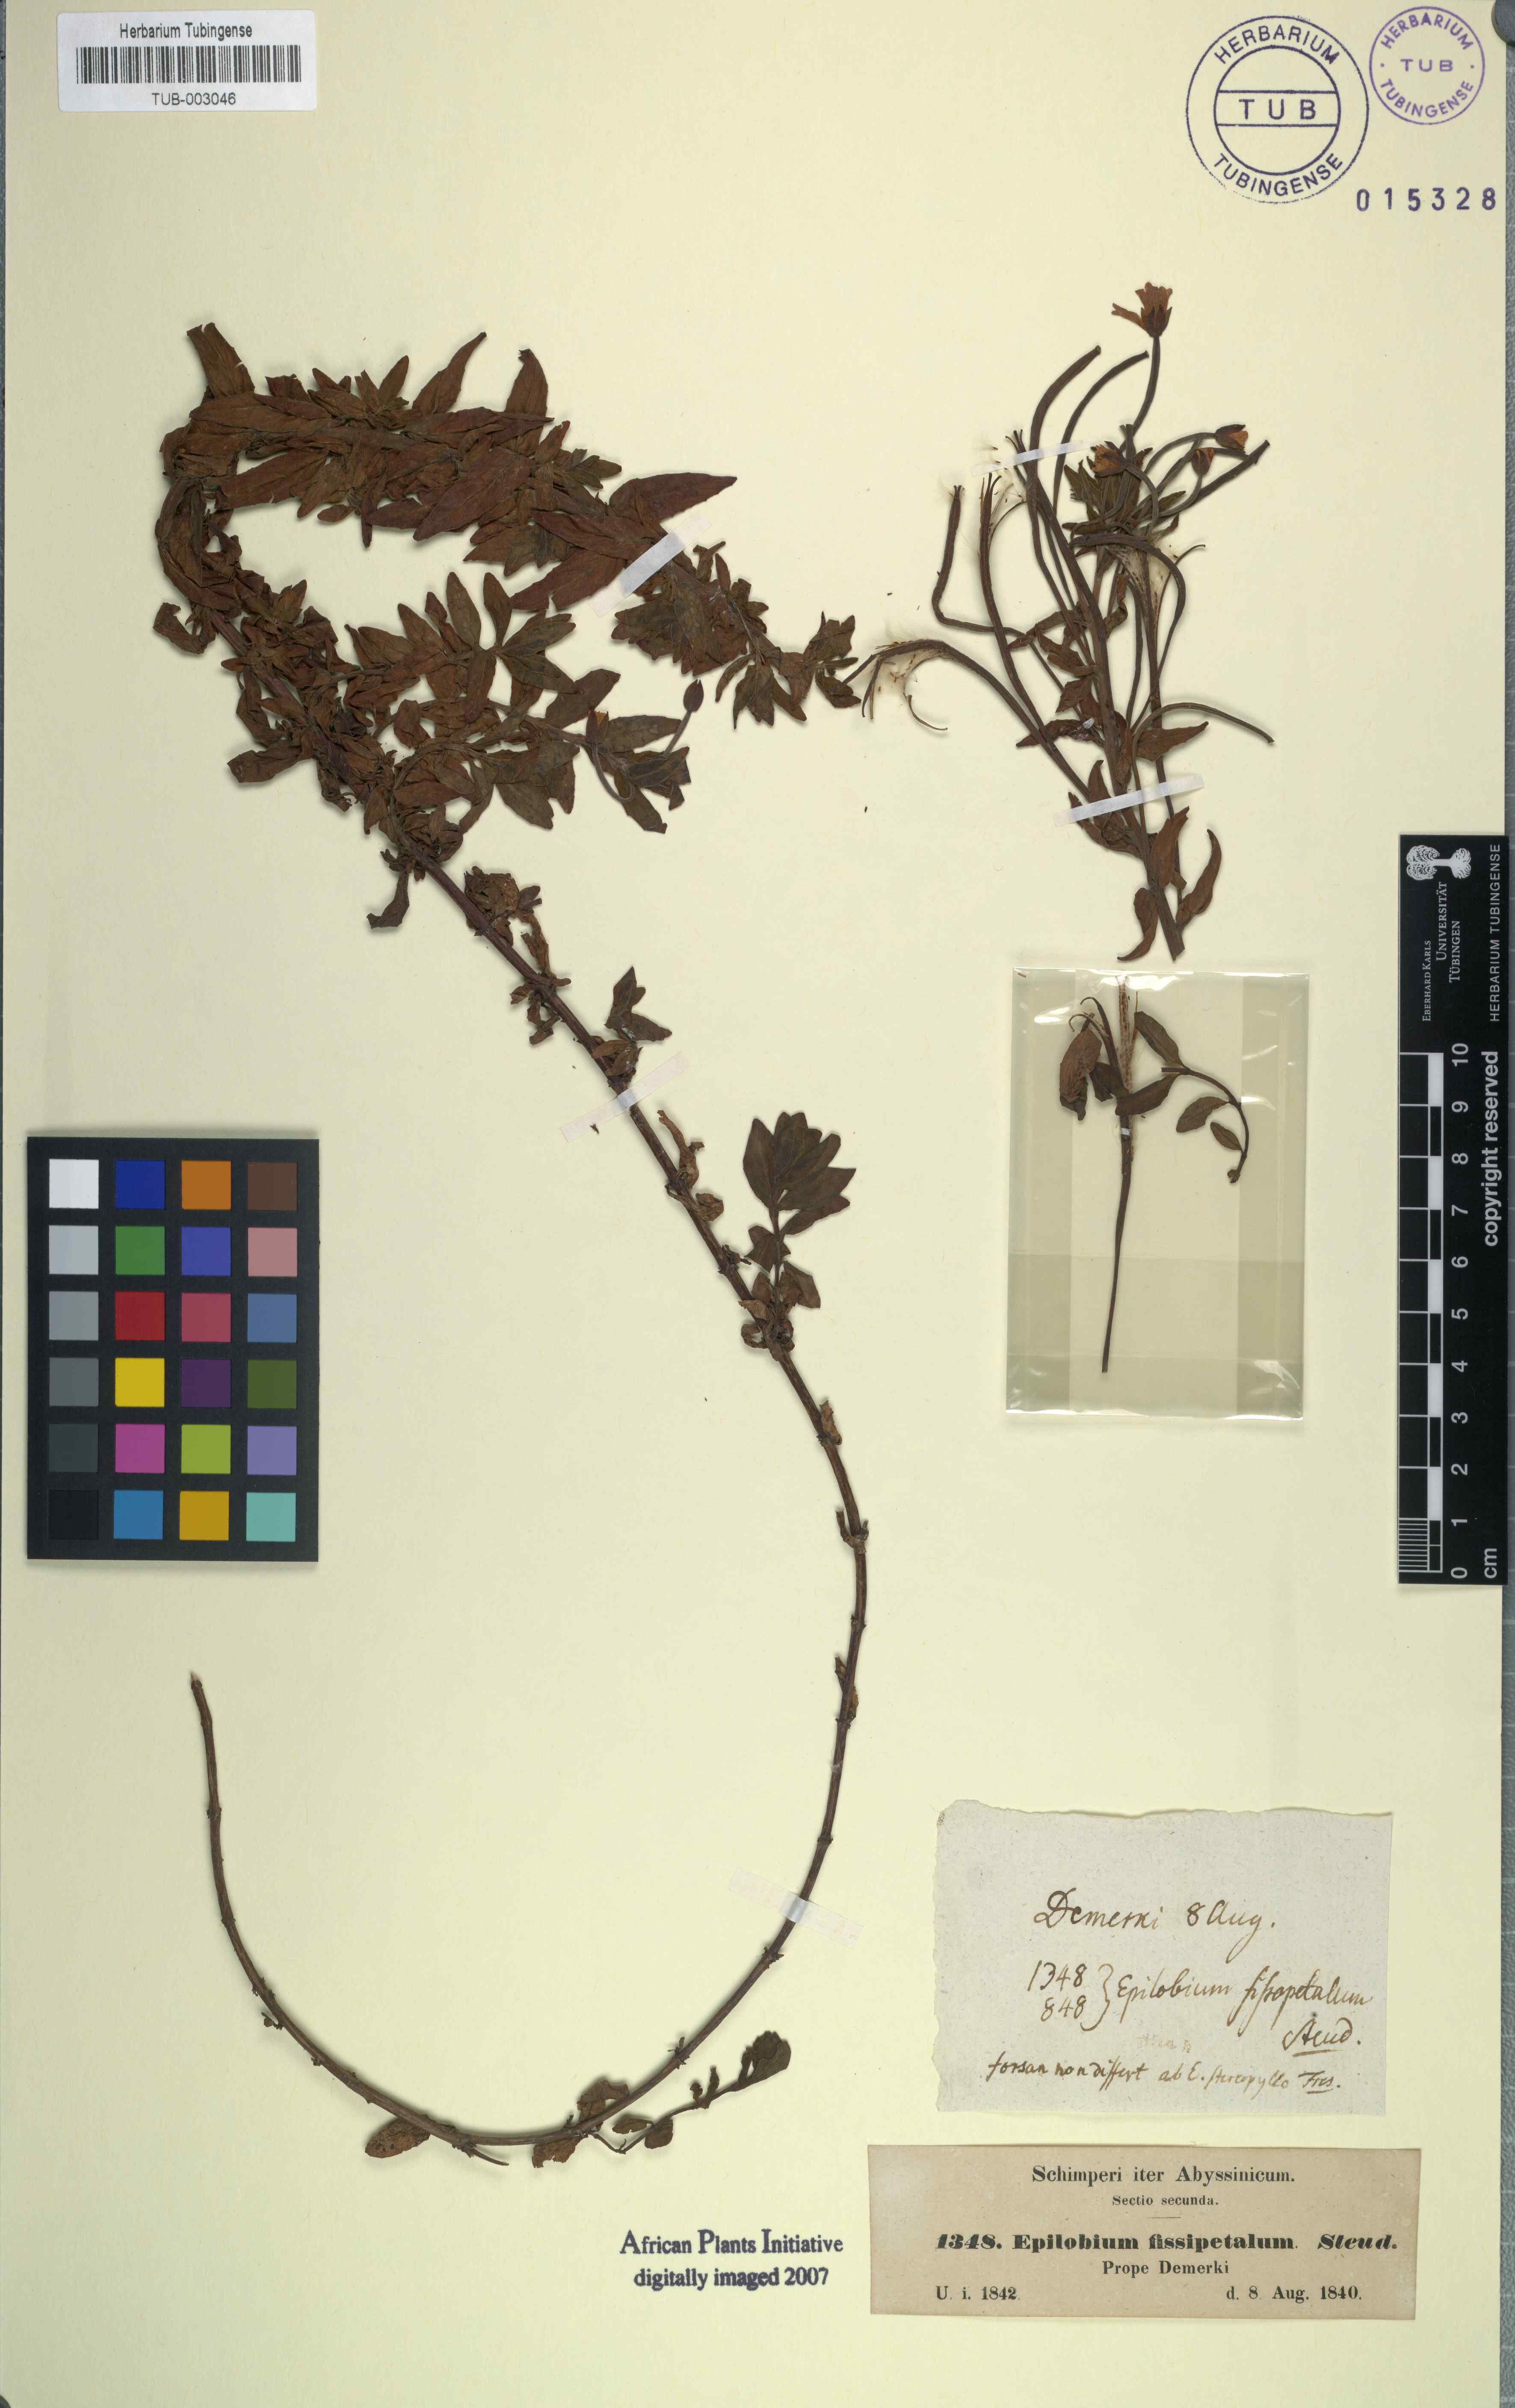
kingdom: Plantae
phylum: Tracheophyta
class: Magnoliopsida
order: Myrtales
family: Onagraceae
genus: Epilobium
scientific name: Epilobium stereophyllum
